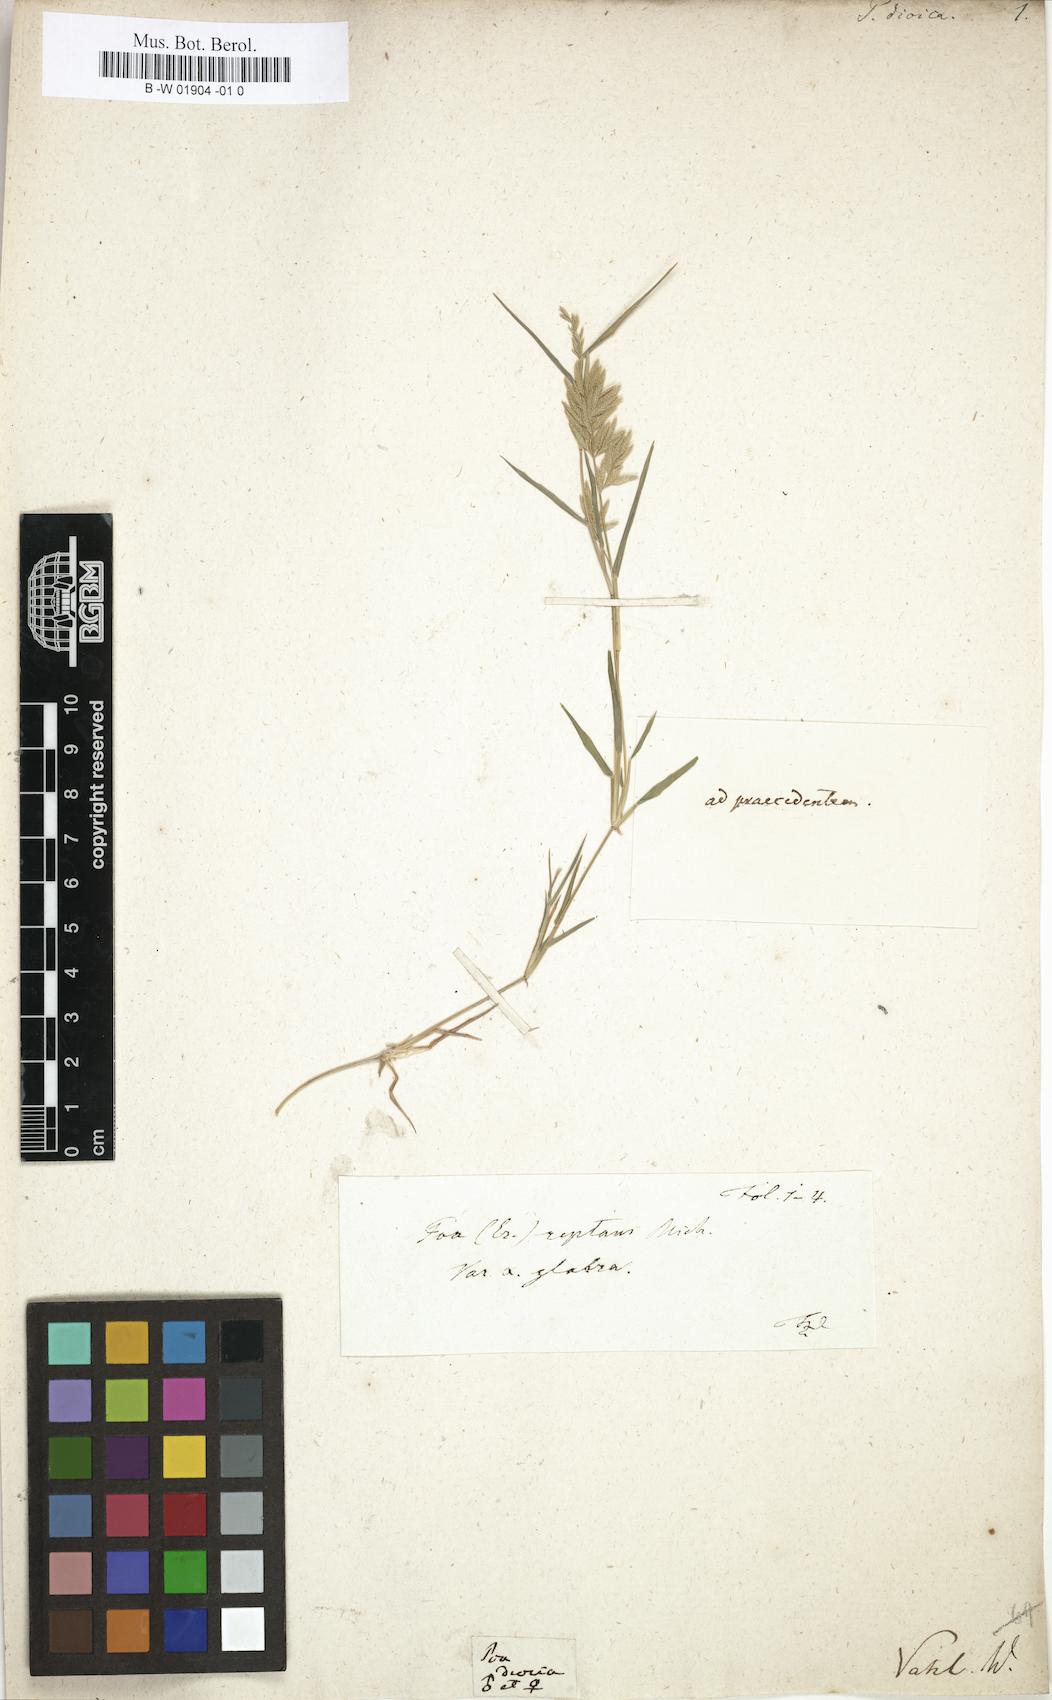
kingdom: Plantae
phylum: Tracheophyta
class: Liliopsida
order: Poales
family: Poaceae
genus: Eragrostis
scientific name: Eragrostis reptans
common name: Creeping love grass
